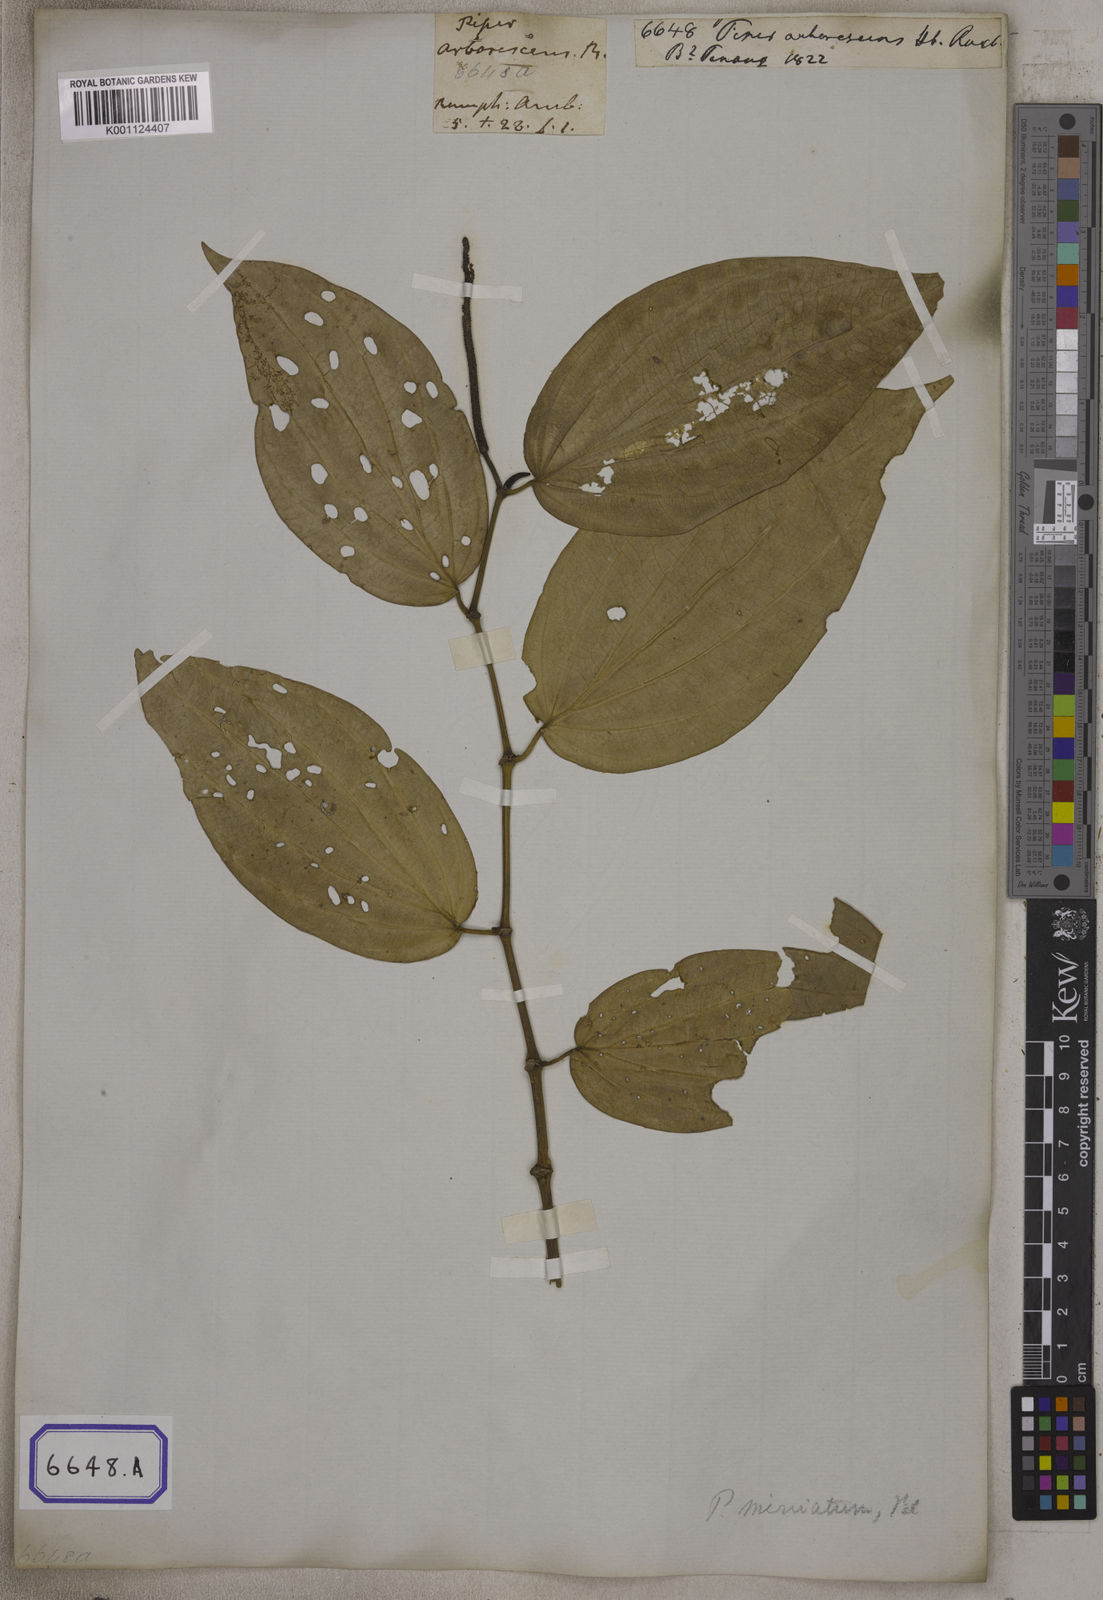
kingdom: Plantae
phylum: Tracheophyta
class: Magnoliopsida
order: Piperales
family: Piperaceae
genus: Piper
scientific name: Piper macropiper
